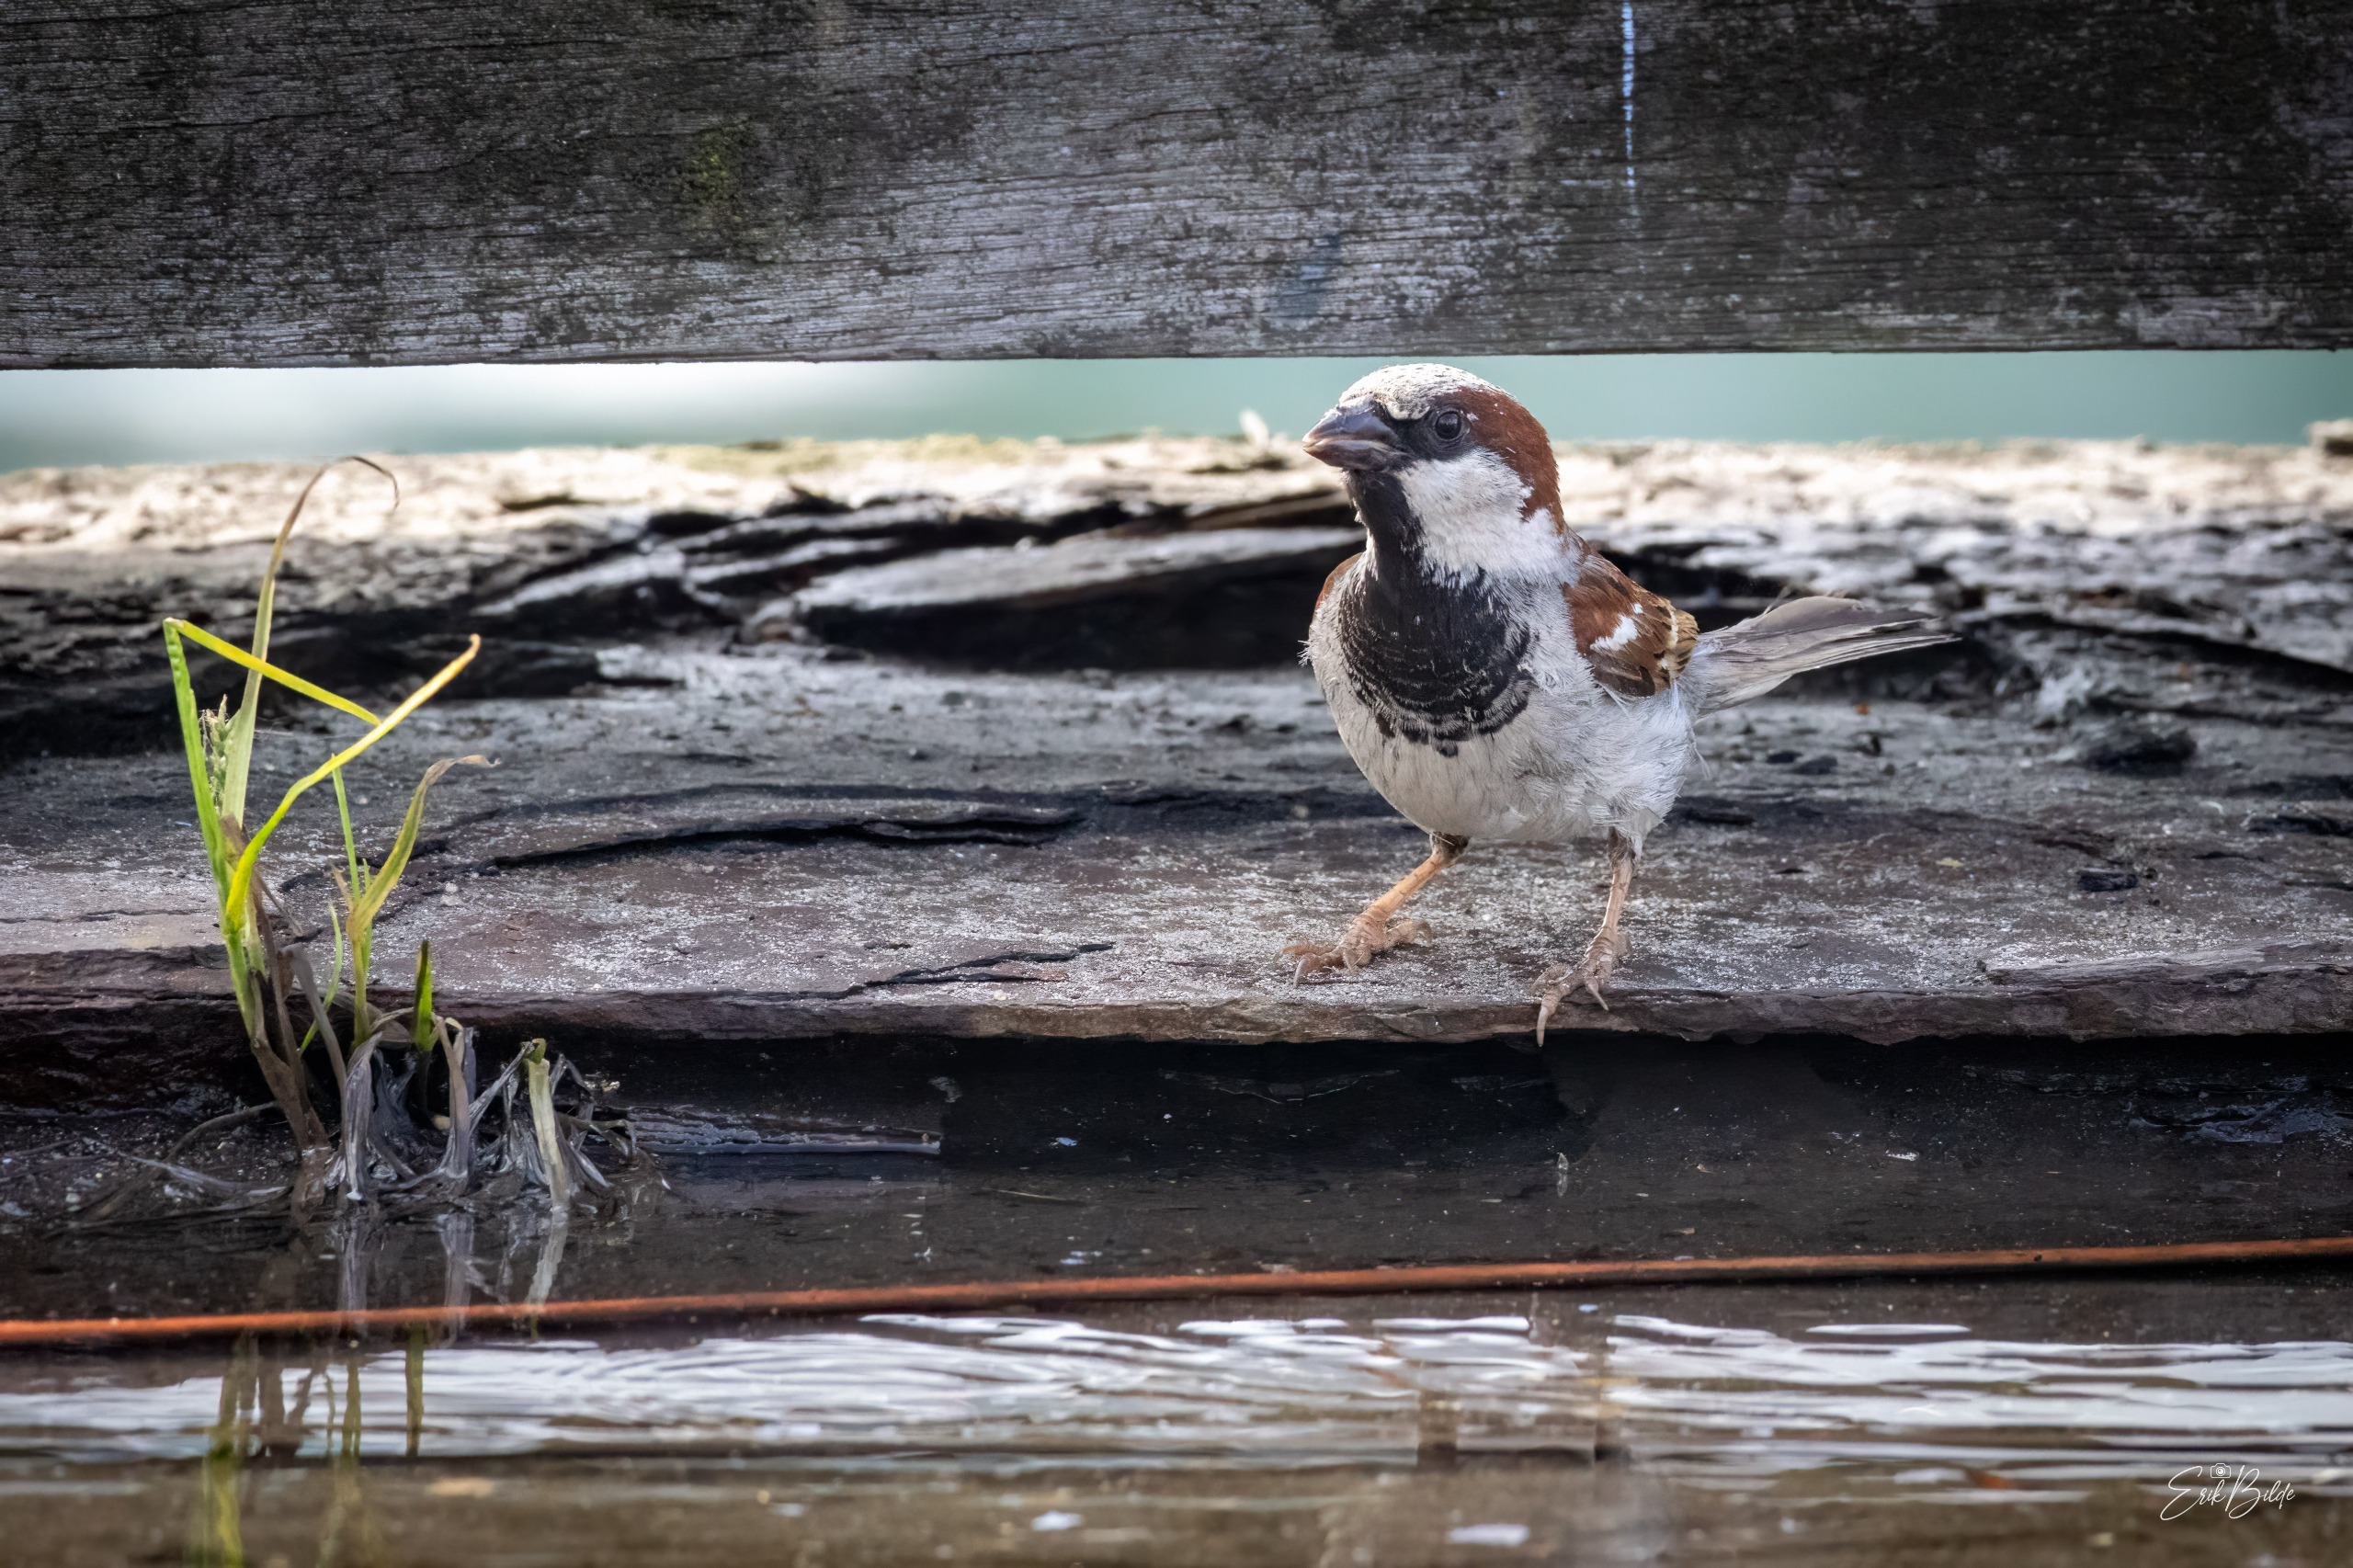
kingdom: Animalia
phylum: Chordata
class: Aves
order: Passeriformes
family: Passeridae
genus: Passer
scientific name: Passer domesticus
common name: Gråspurv
